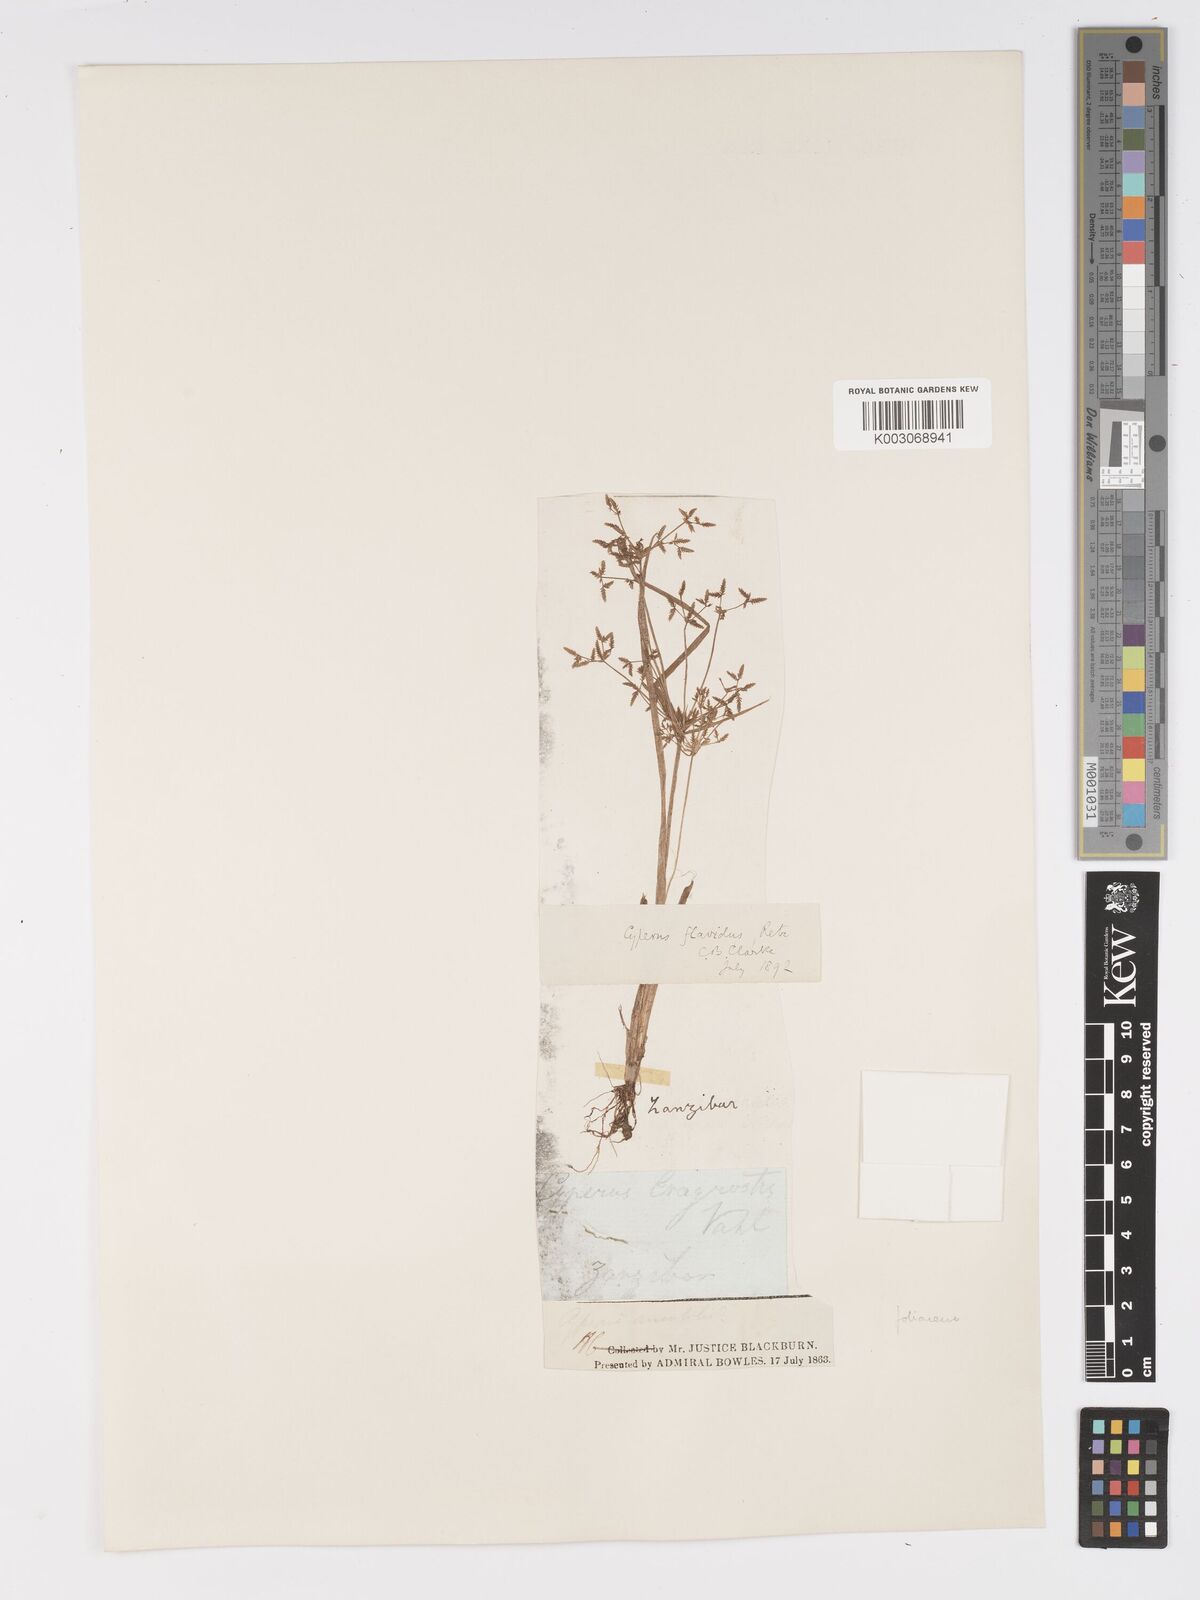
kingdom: Plantae
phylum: Tracheophyta
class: Liliopsida
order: Poales
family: Cyperaceae
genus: Cyperus
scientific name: Cyperus tenuispica
